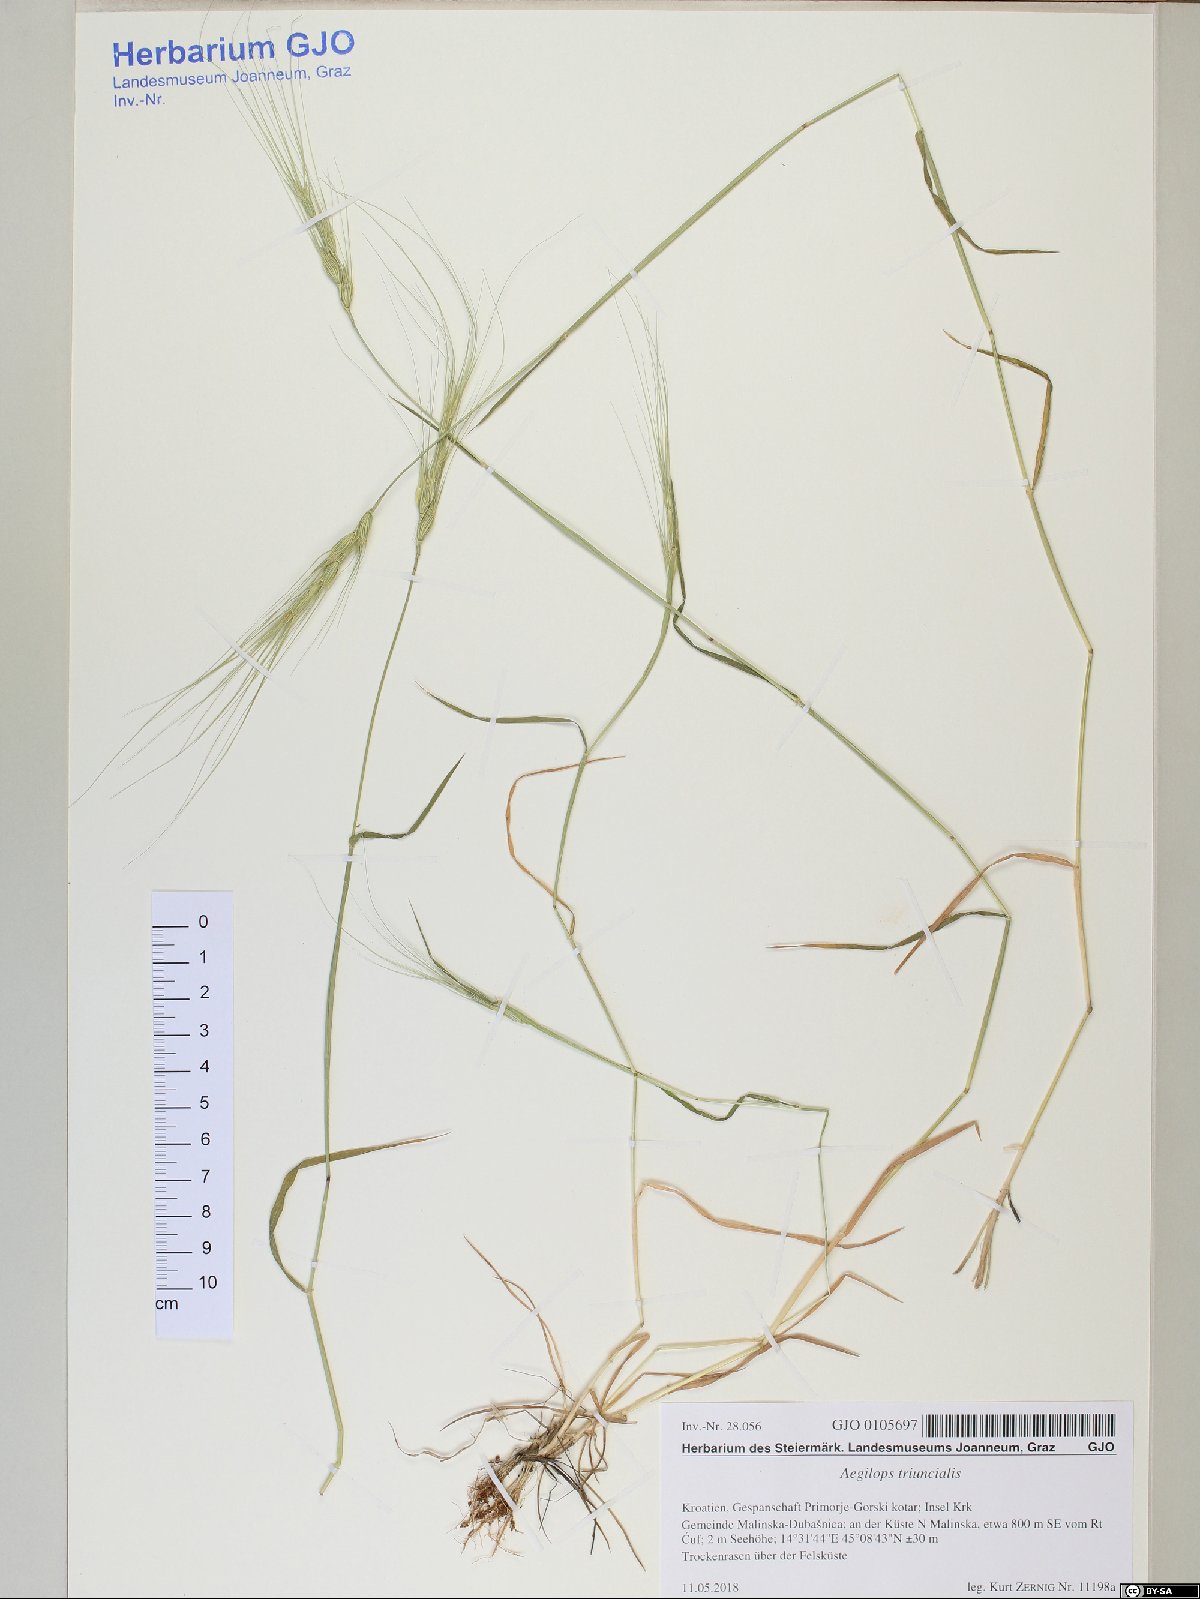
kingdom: Plantae
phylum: Tracheophyta
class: Liliopsida
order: Poales
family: Poaceae
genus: Aegilops
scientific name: Aegilops triuncialis
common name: Barb goat grass
